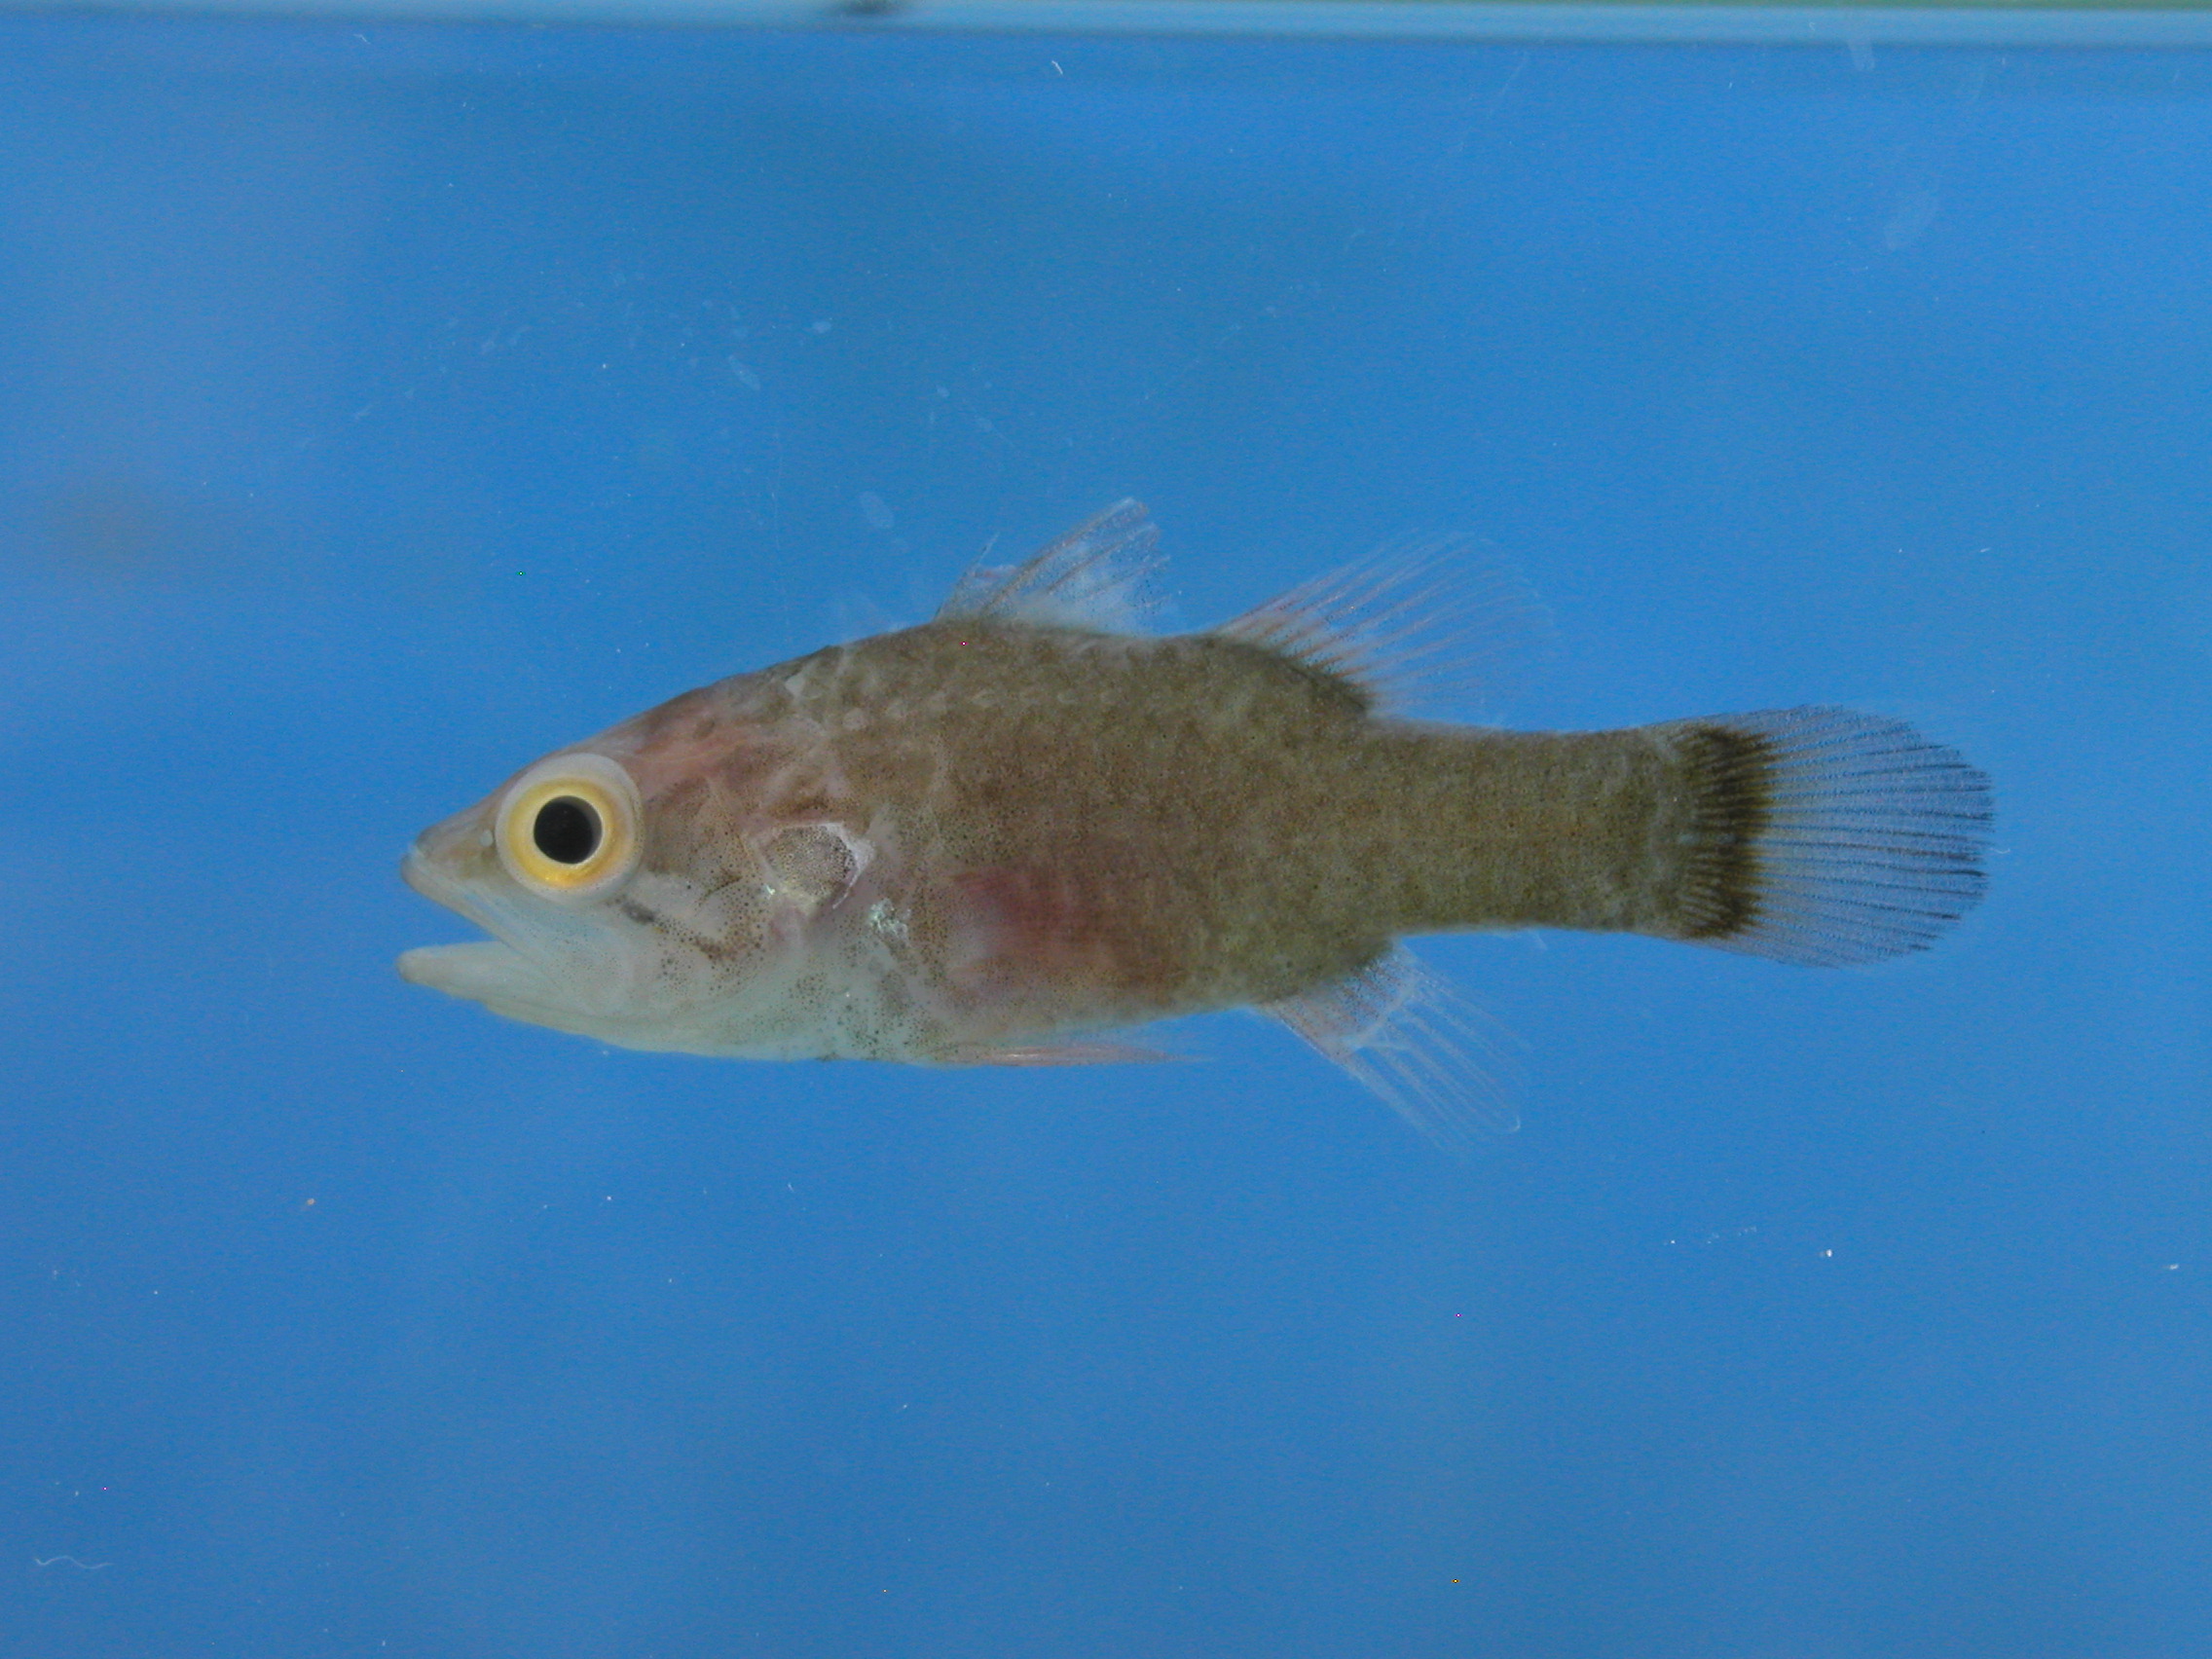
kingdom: Animalia
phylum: Chordata
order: Perciformes
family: Apogonidae
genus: Fowleria
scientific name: Fowleria variegata
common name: Variegated cardinalfish
